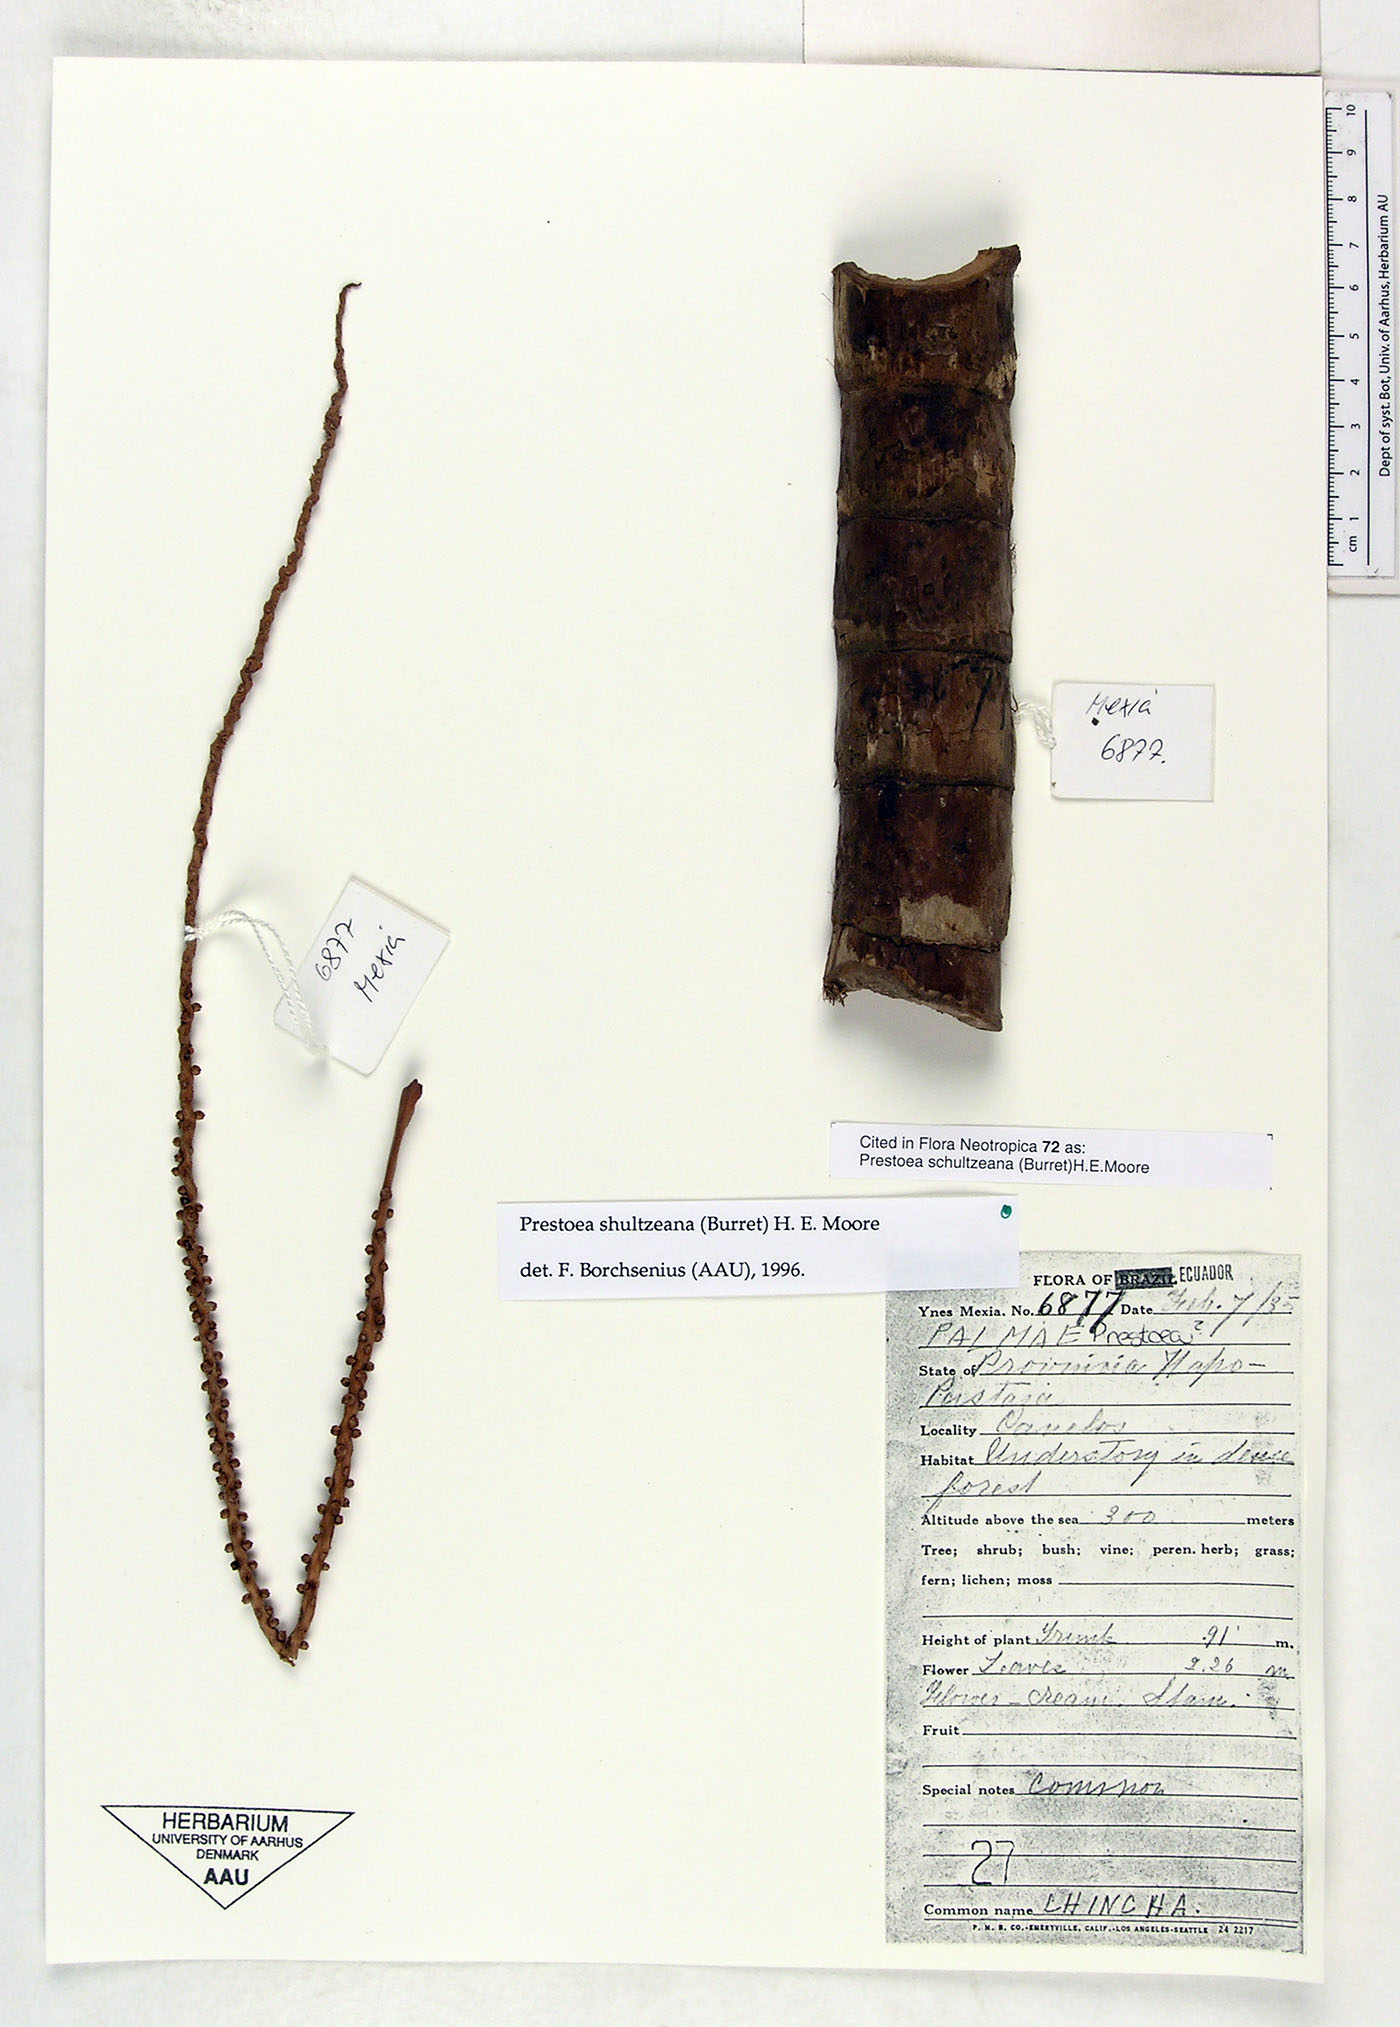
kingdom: Plantae
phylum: Tracheophyta
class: Liliopsida
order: Arecales
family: Arecaceae
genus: Prestoea
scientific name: Prestoea schultzeana
